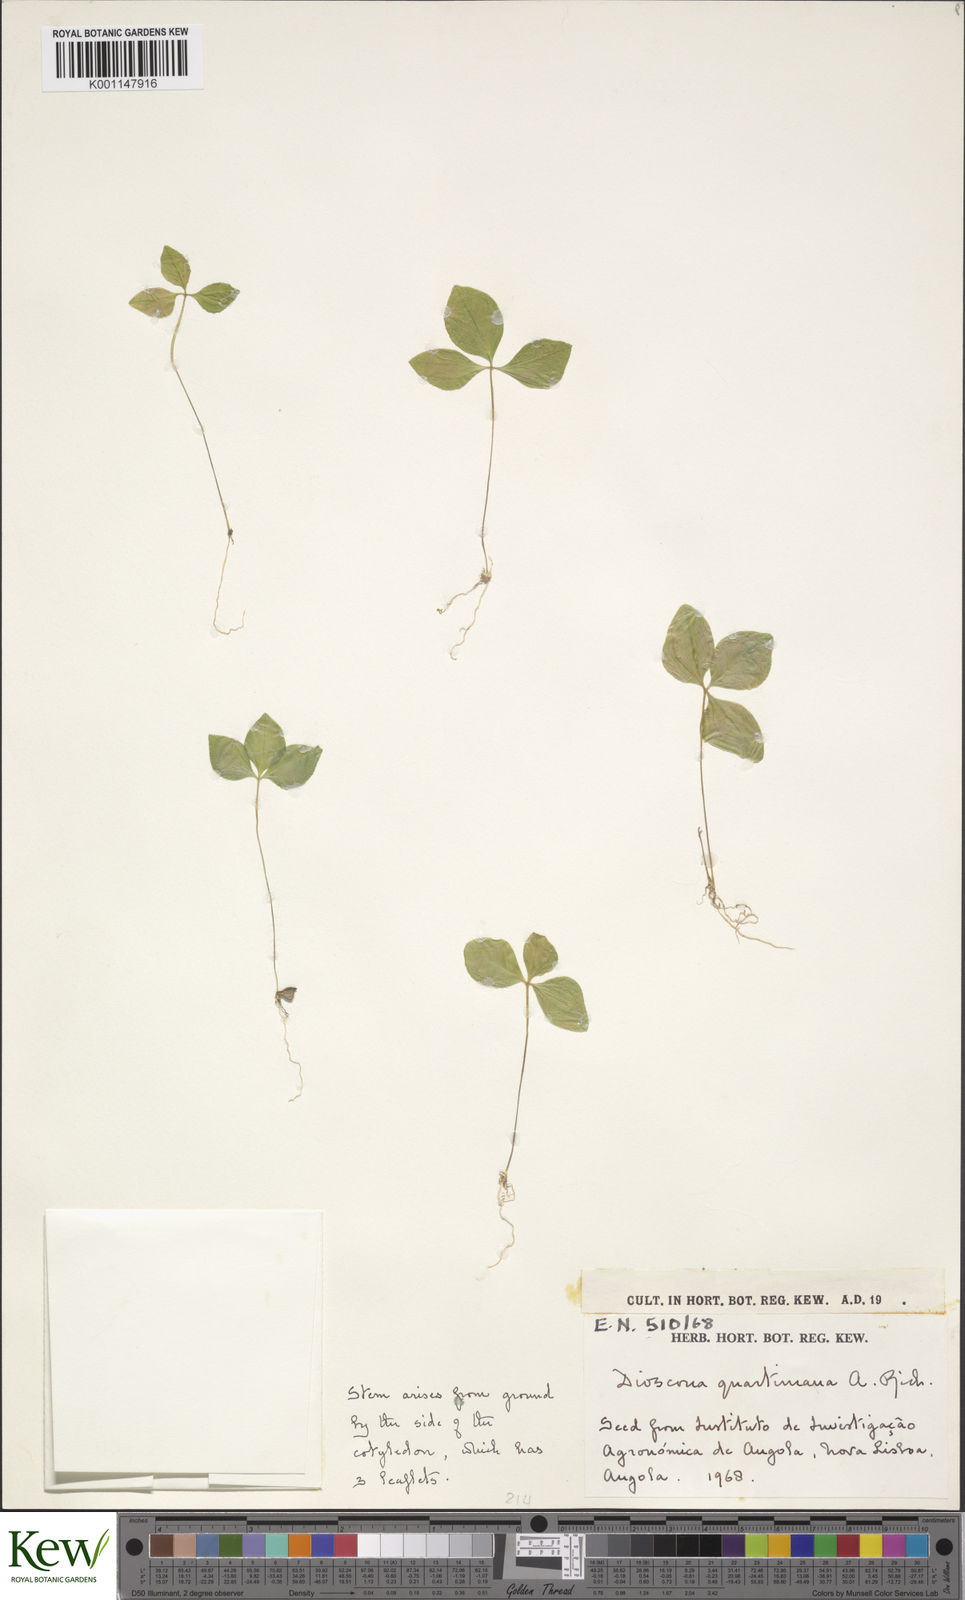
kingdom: Plantae
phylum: Tracheophyta
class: Liliopsida
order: Dioscoreales
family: Dioscoreaceae
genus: Dioscorea
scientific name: Dioscorea quartiniana
